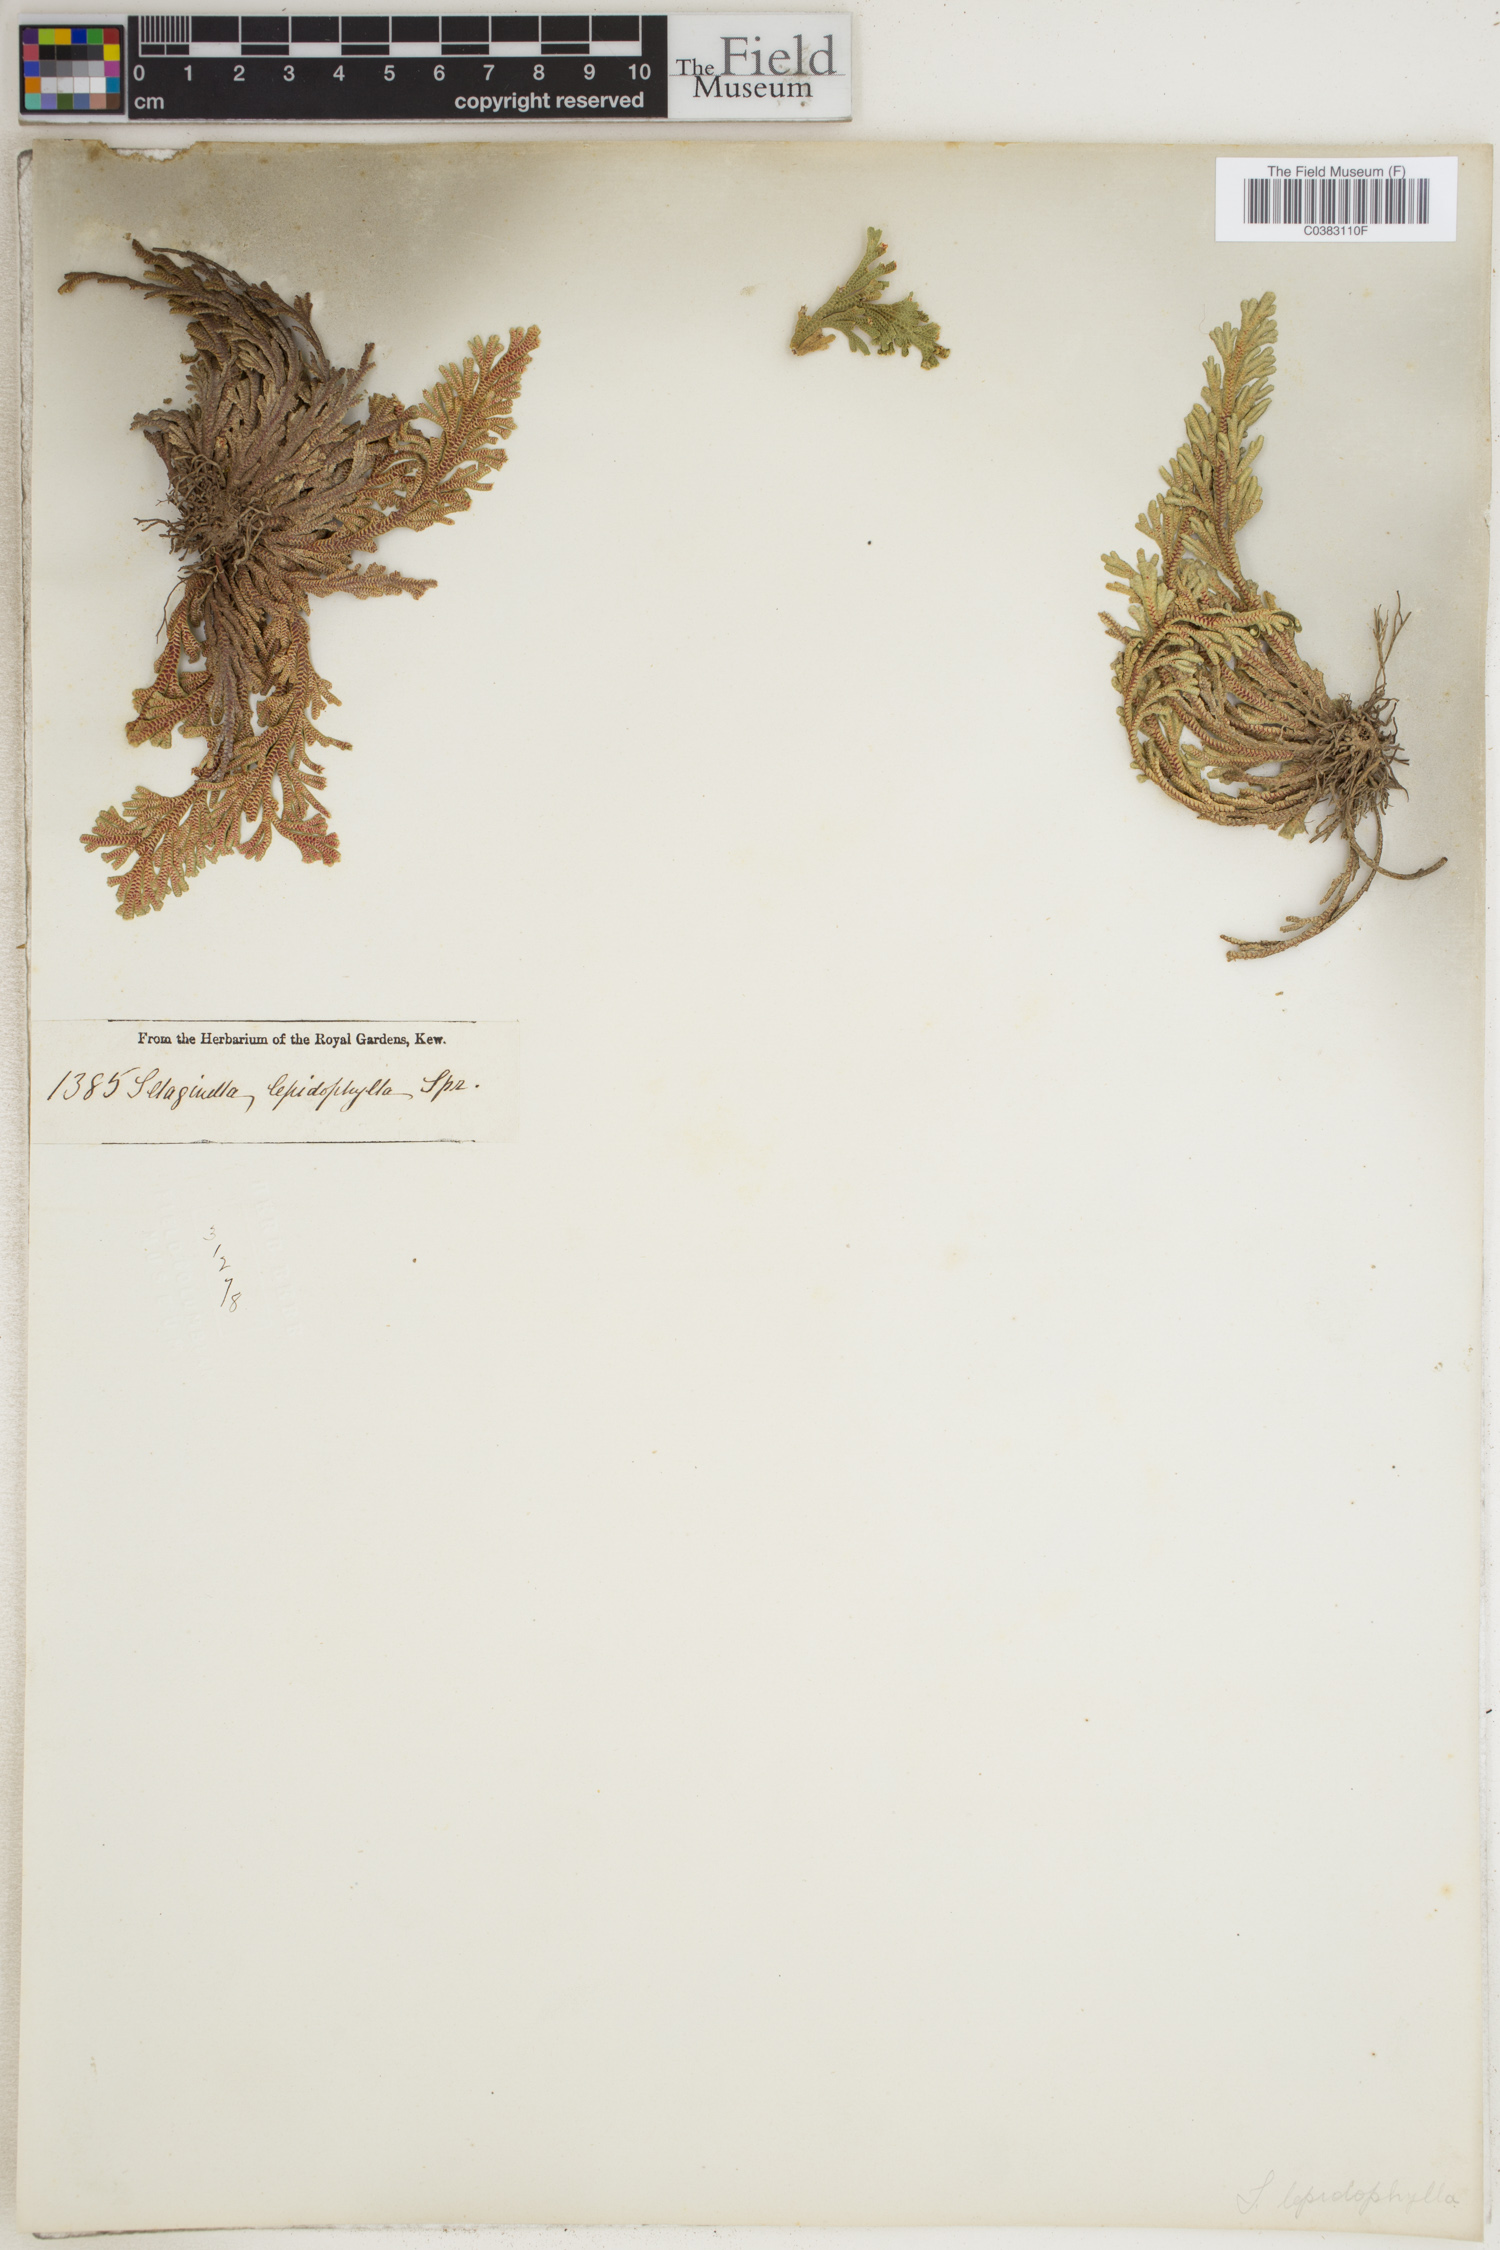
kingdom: Plantae
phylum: Tracheophyta
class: Lycopodiopsida
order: Selaginellales
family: Selaginellaceae
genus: Selaginella
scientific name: Selaginella lepidophylla
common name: Rose-of-jericho
